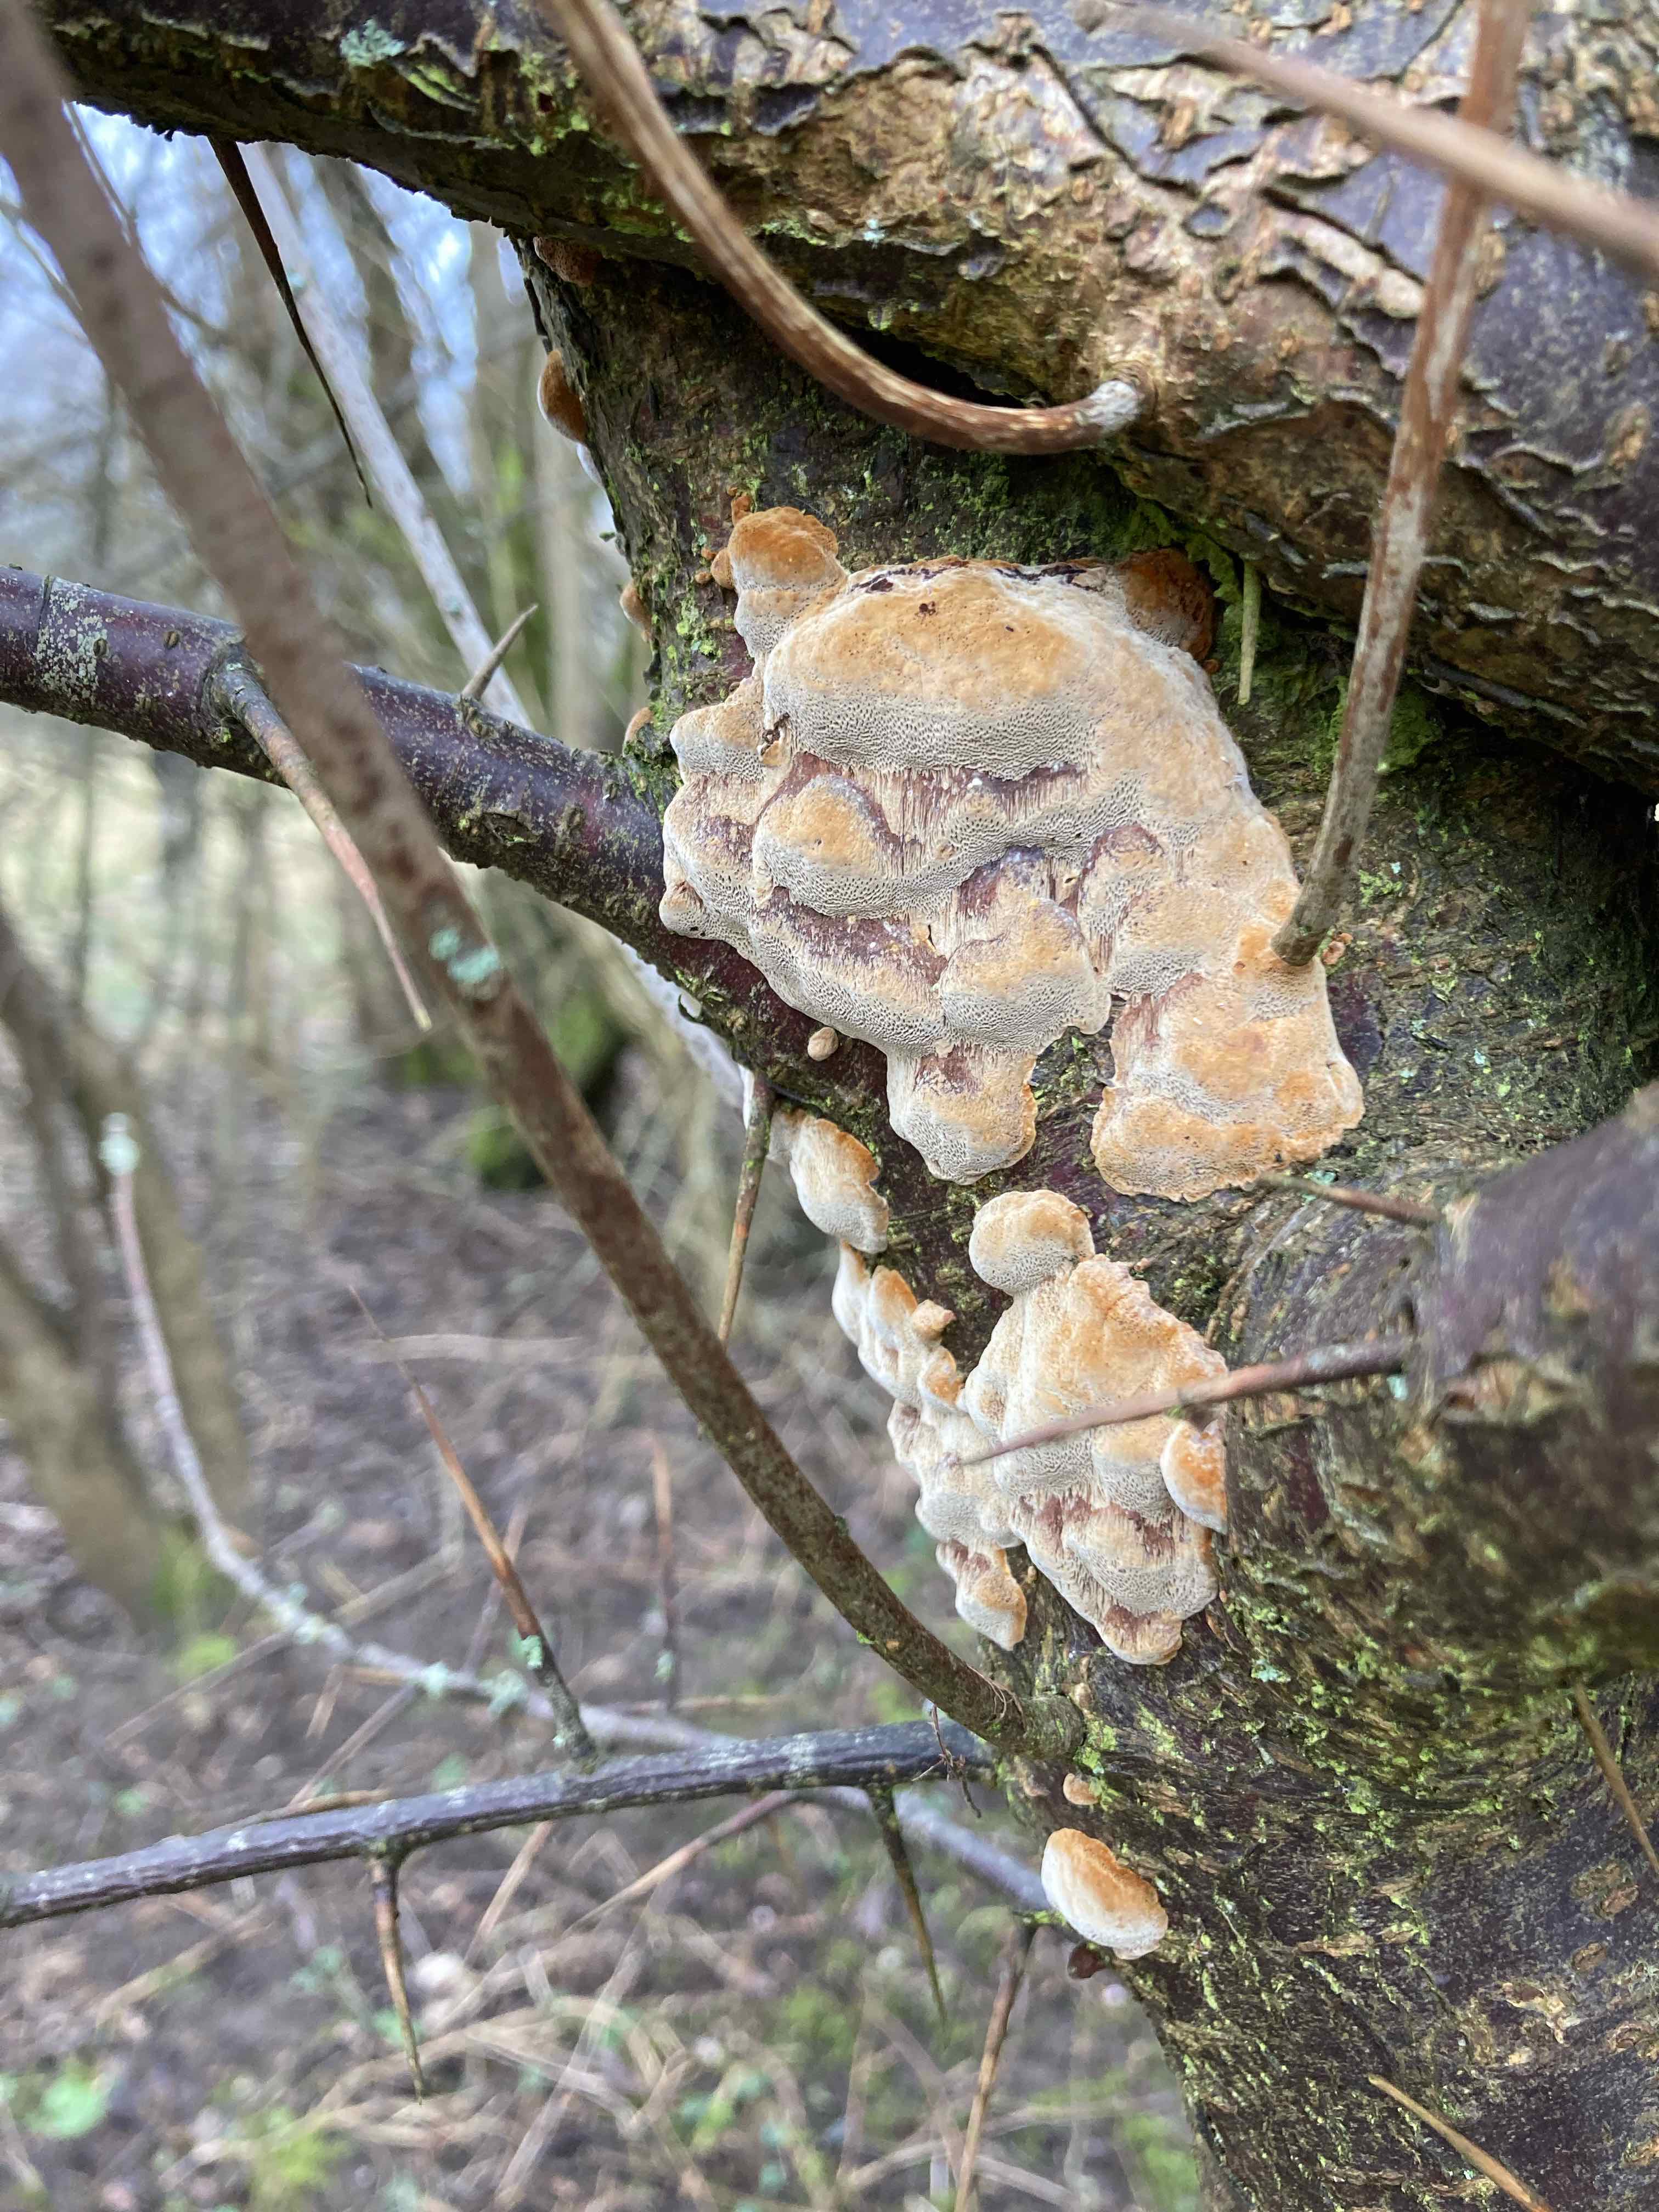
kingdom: Fungi
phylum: Basidiomycota
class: Agaricomycetes
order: Hymenochaetales
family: Hymenochaetaceae
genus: Phellinus
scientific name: Phellinus pomaceus
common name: blomme-ildporesvamp
